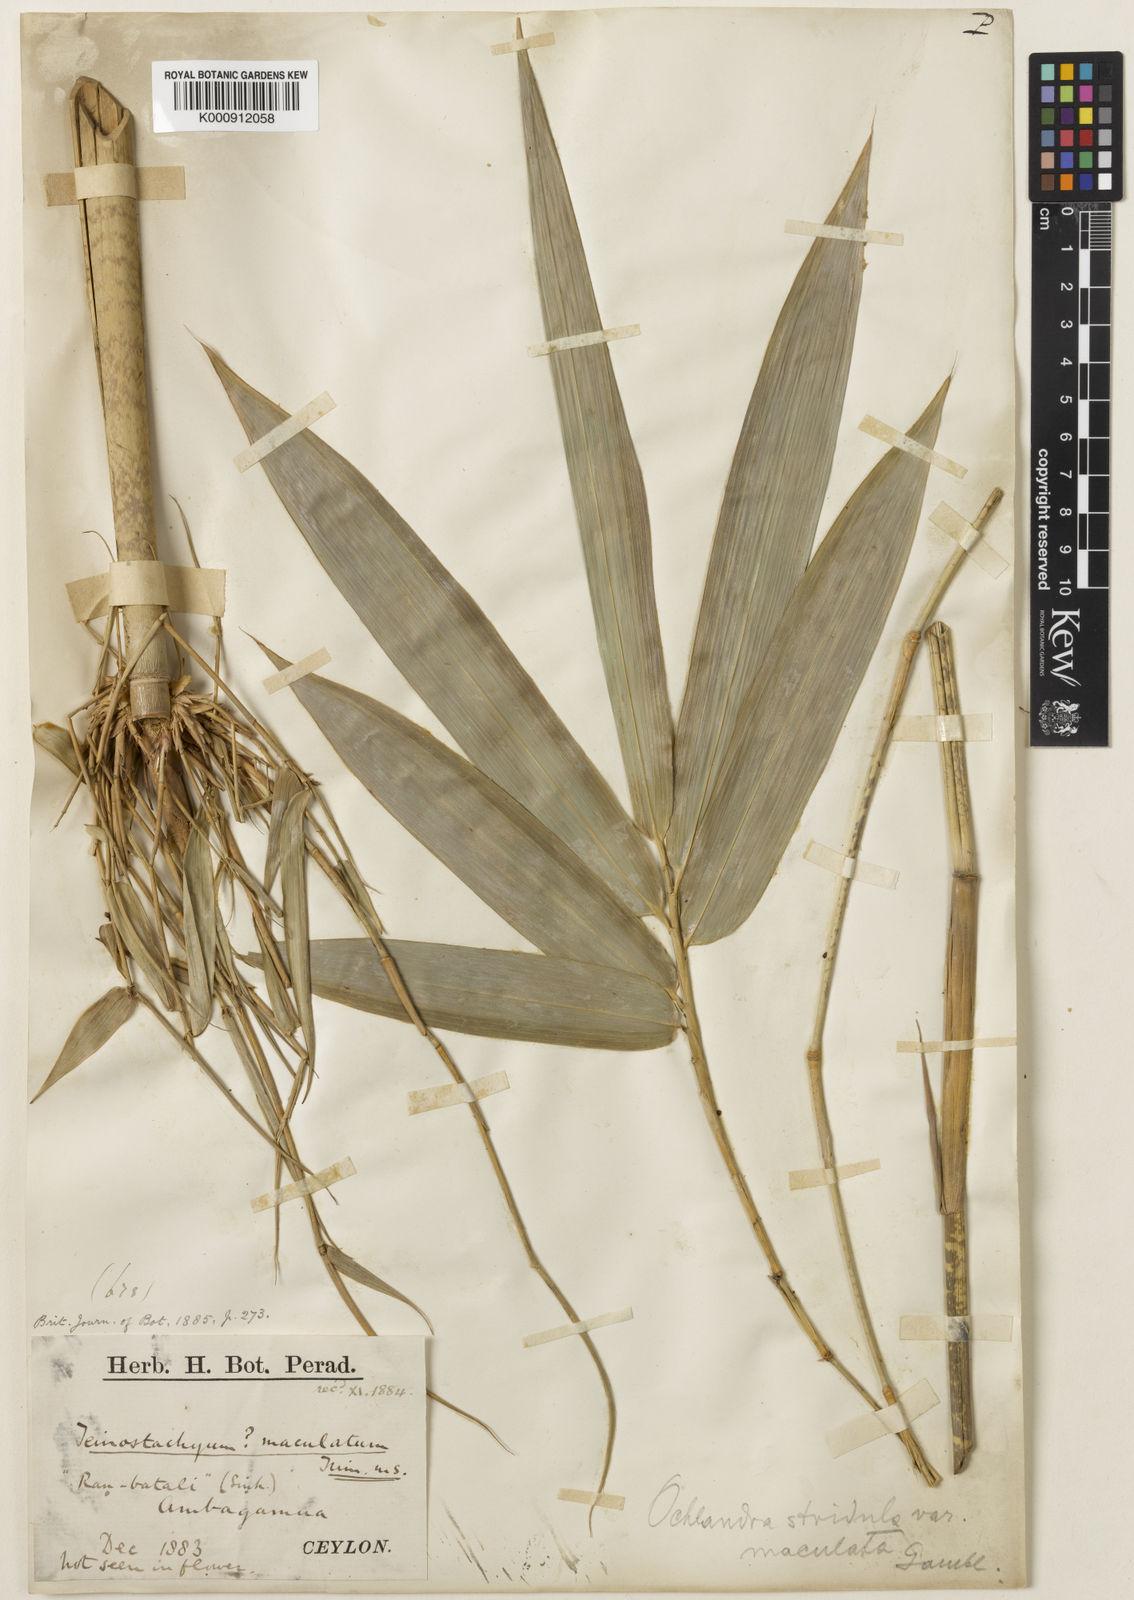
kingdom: Plantae
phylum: Tracheophyta
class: Liliopsida
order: Poales
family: Poaceae
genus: Ochlandra
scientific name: Ochlandra stridula
